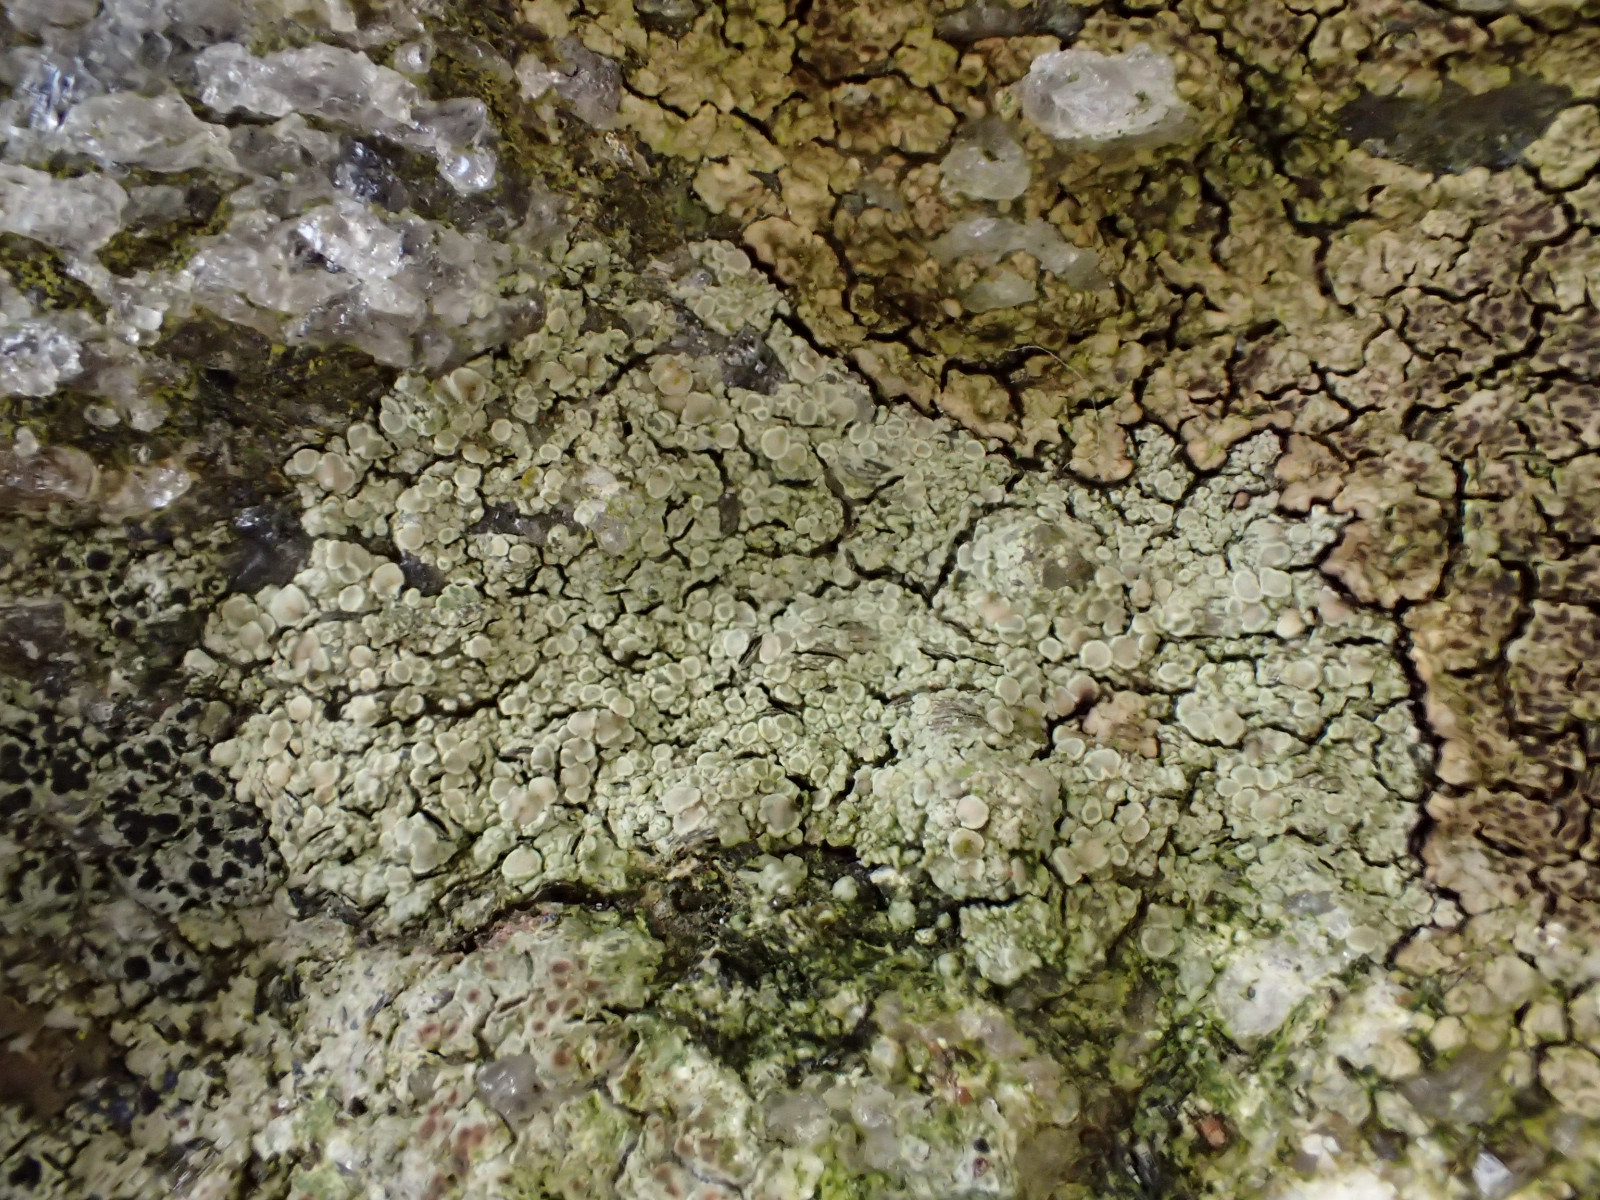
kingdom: Fungi
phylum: Ascomycota
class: Lecanoromycetes
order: Lecanorales
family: Lecanoraceae
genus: Protoparmeliopsis
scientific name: Protoparmeliopsis muralis
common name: randfliget kantskivelav
